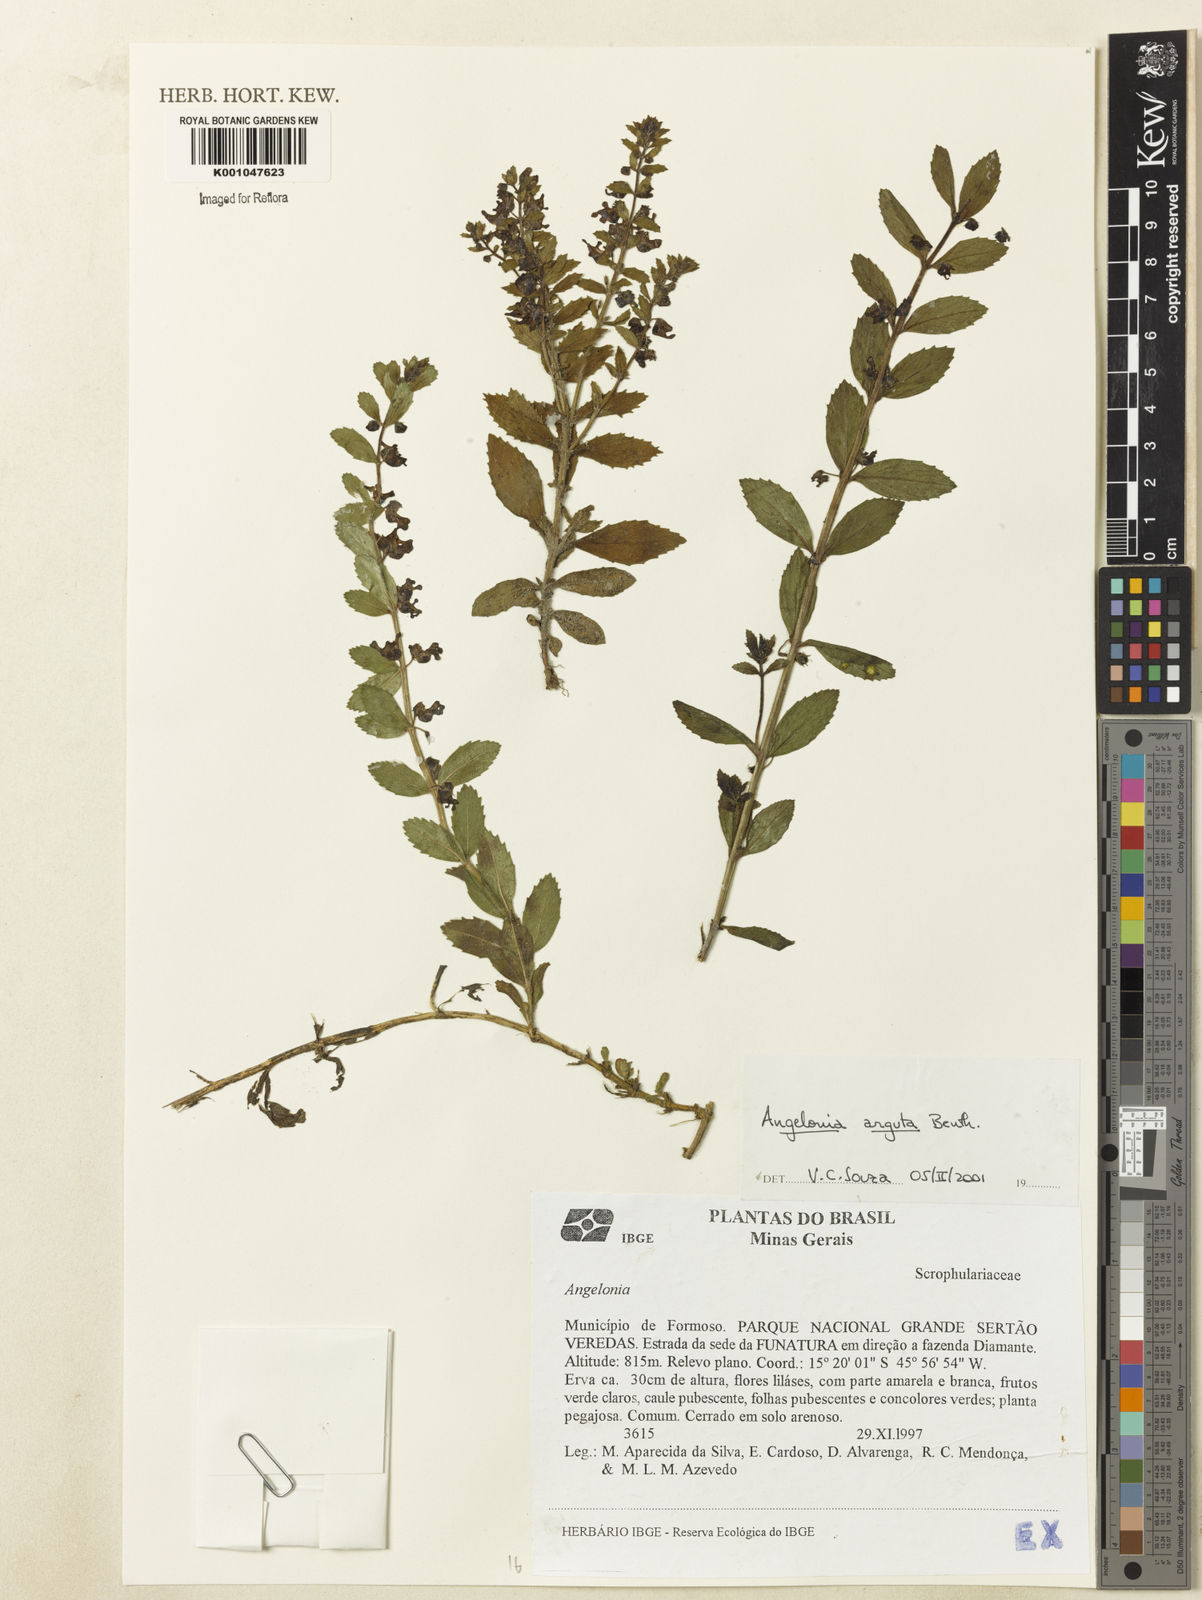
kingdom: Plantae
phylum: Tracheophyta
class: Magnoliopsida
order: Lamiales
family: Plantaginaceae
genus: Angelonia
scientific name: Angelonia arguta
